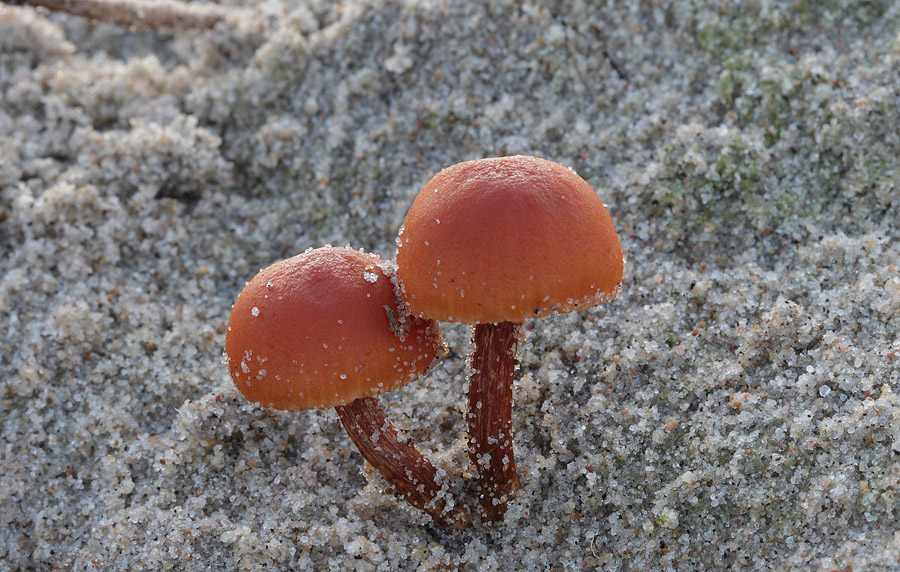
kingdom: Fungi
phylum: Basidiomycota
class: Agaricomycetes
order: Agaricales
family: Hydnangiaceae
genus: Laccaria
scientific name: Laccaria laccata
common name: rød ametysthat
